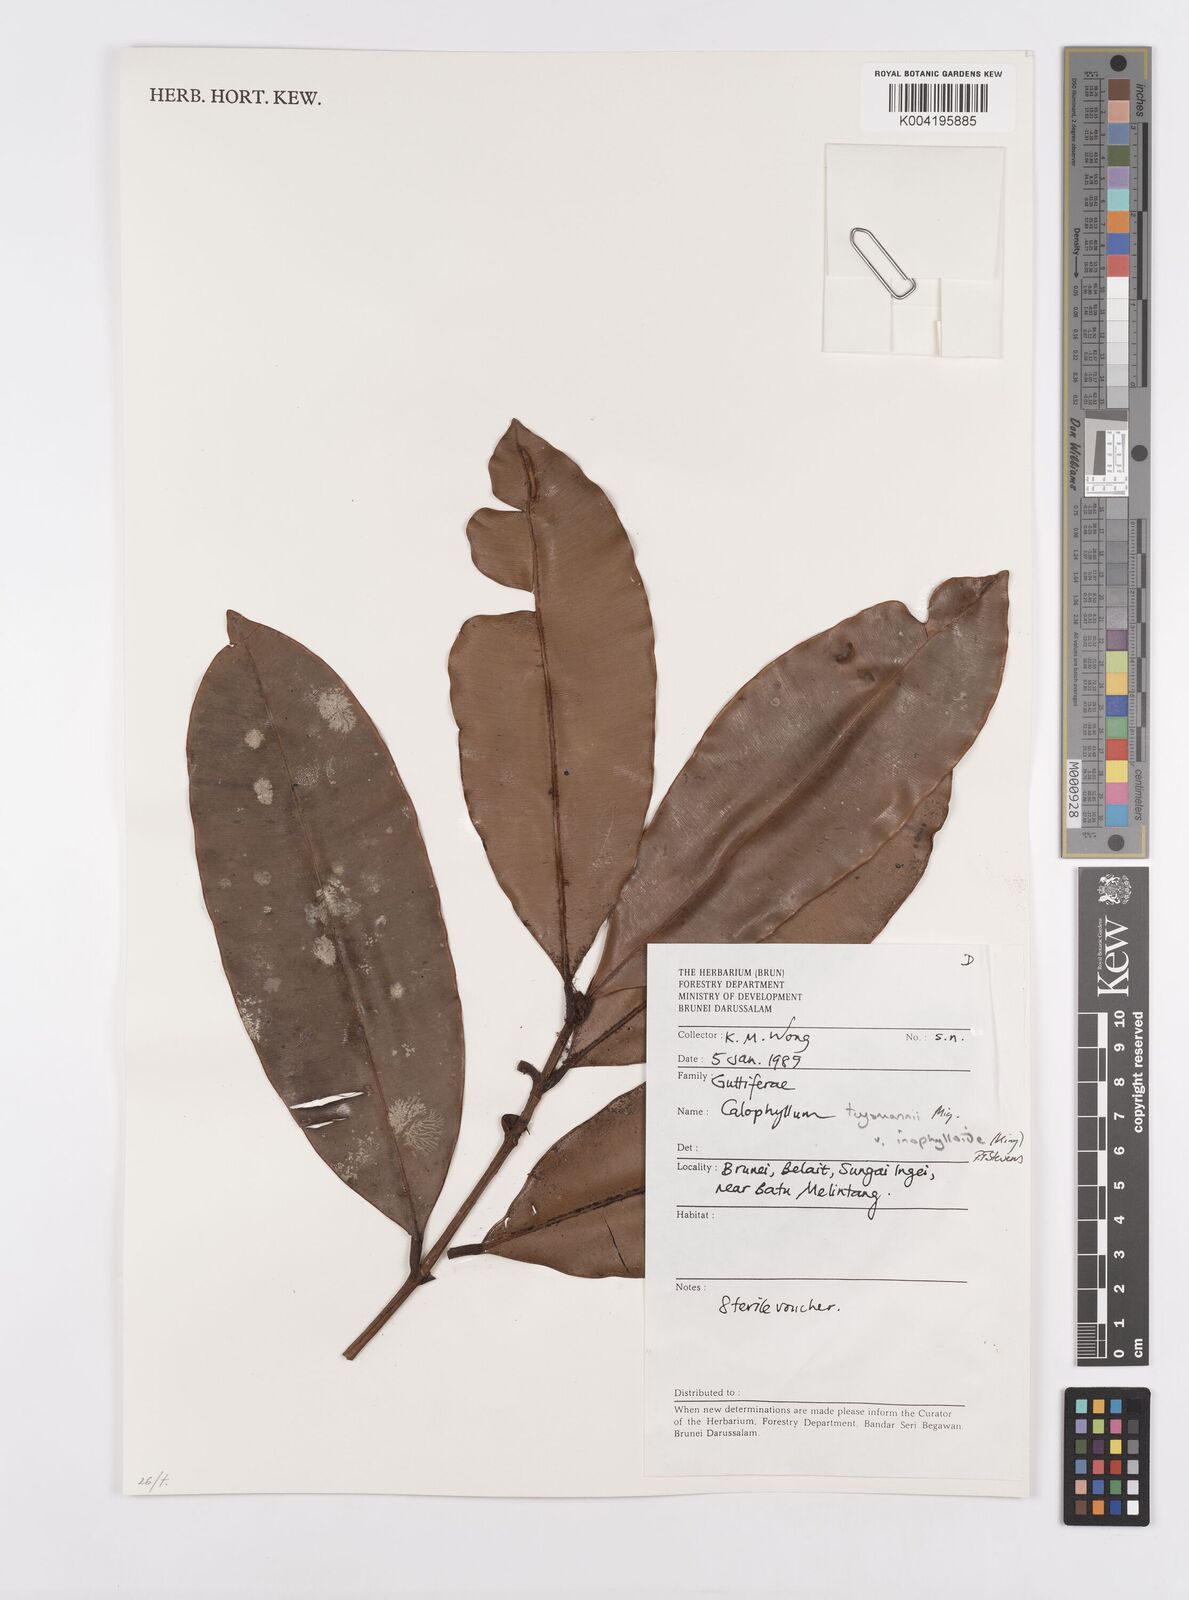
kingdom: Plantae
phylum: Tracheophyta
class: Magnoliopsida
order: Malpighiales
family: Calophyllaceae
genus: Calophyllum
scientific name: Calophyllum teysmannii
